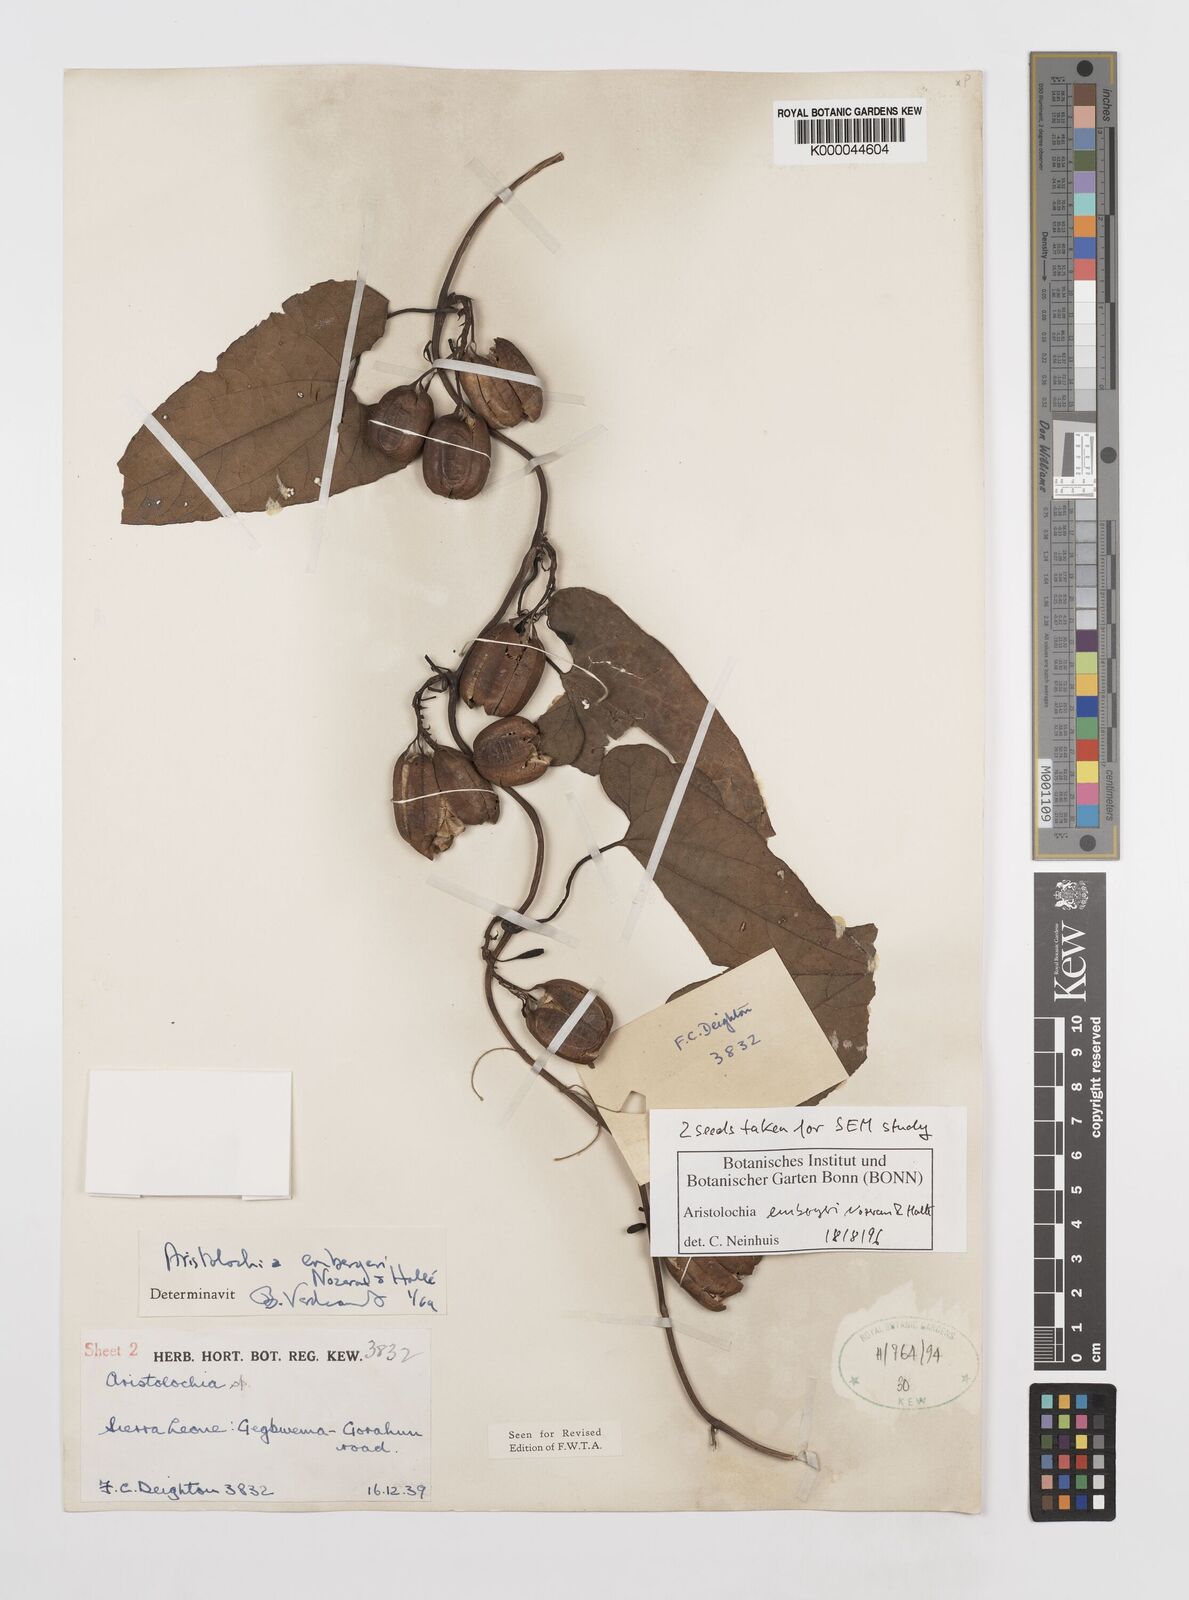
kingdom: Plantae
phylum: Tracheophyta
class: Magnoliopsida
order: Piperales
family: Aristolochiaceae
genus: Aristolochia
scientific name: Aristolochia
